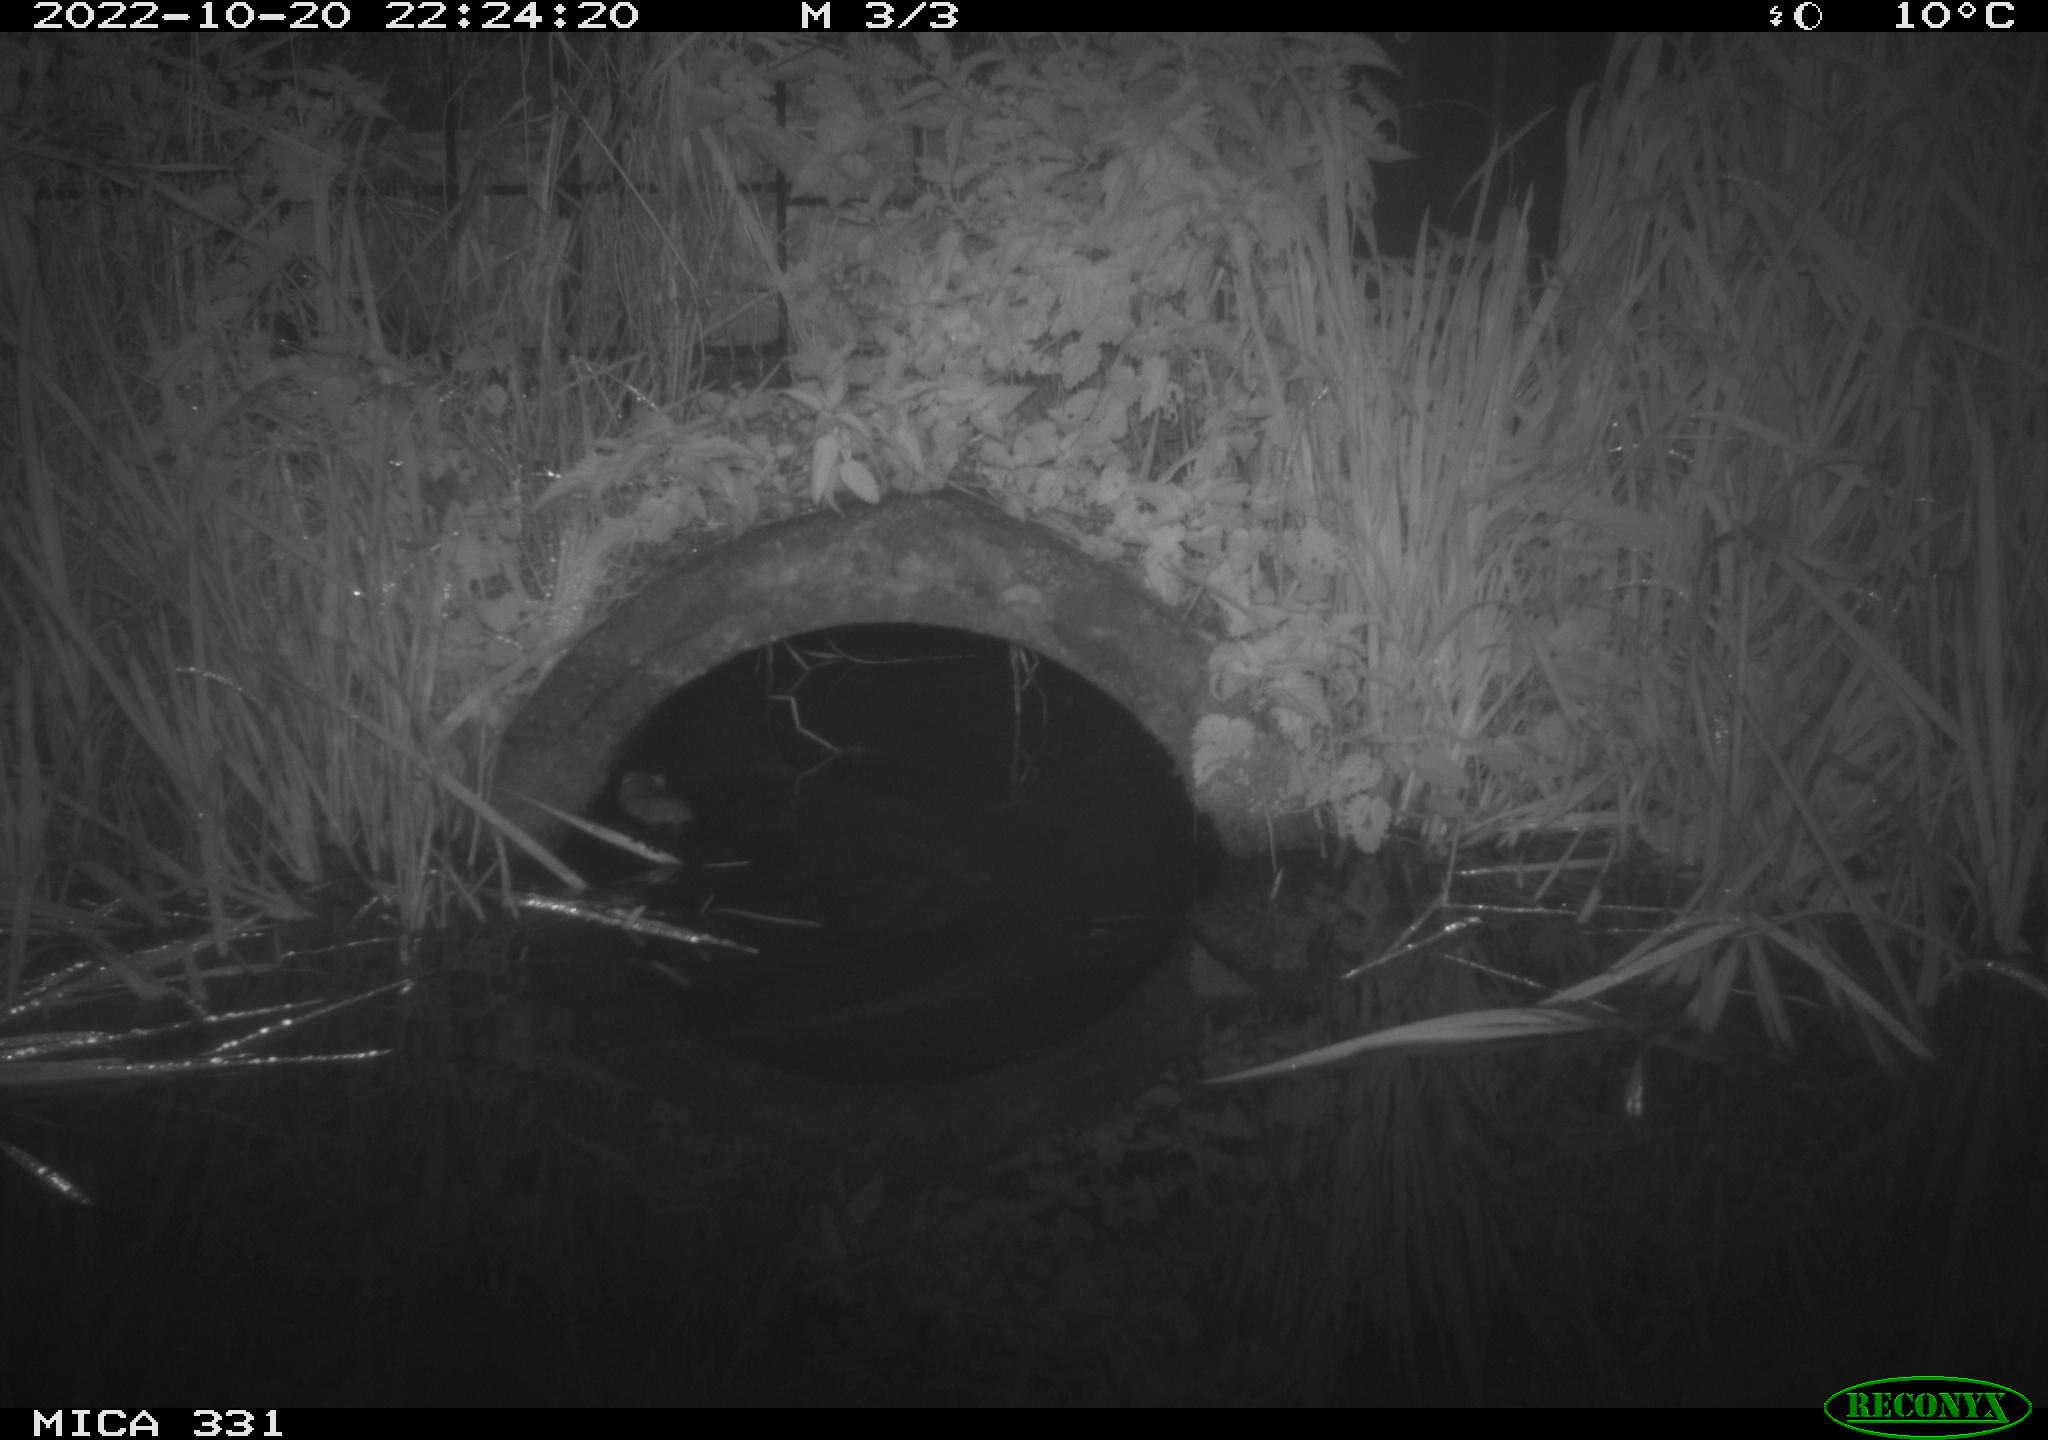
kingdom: Animalia
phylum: Chordata
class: Mammalia
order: Rodentia
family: Muridae
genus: Rattus
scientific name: Rattus norvegicus
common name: Brown rat
